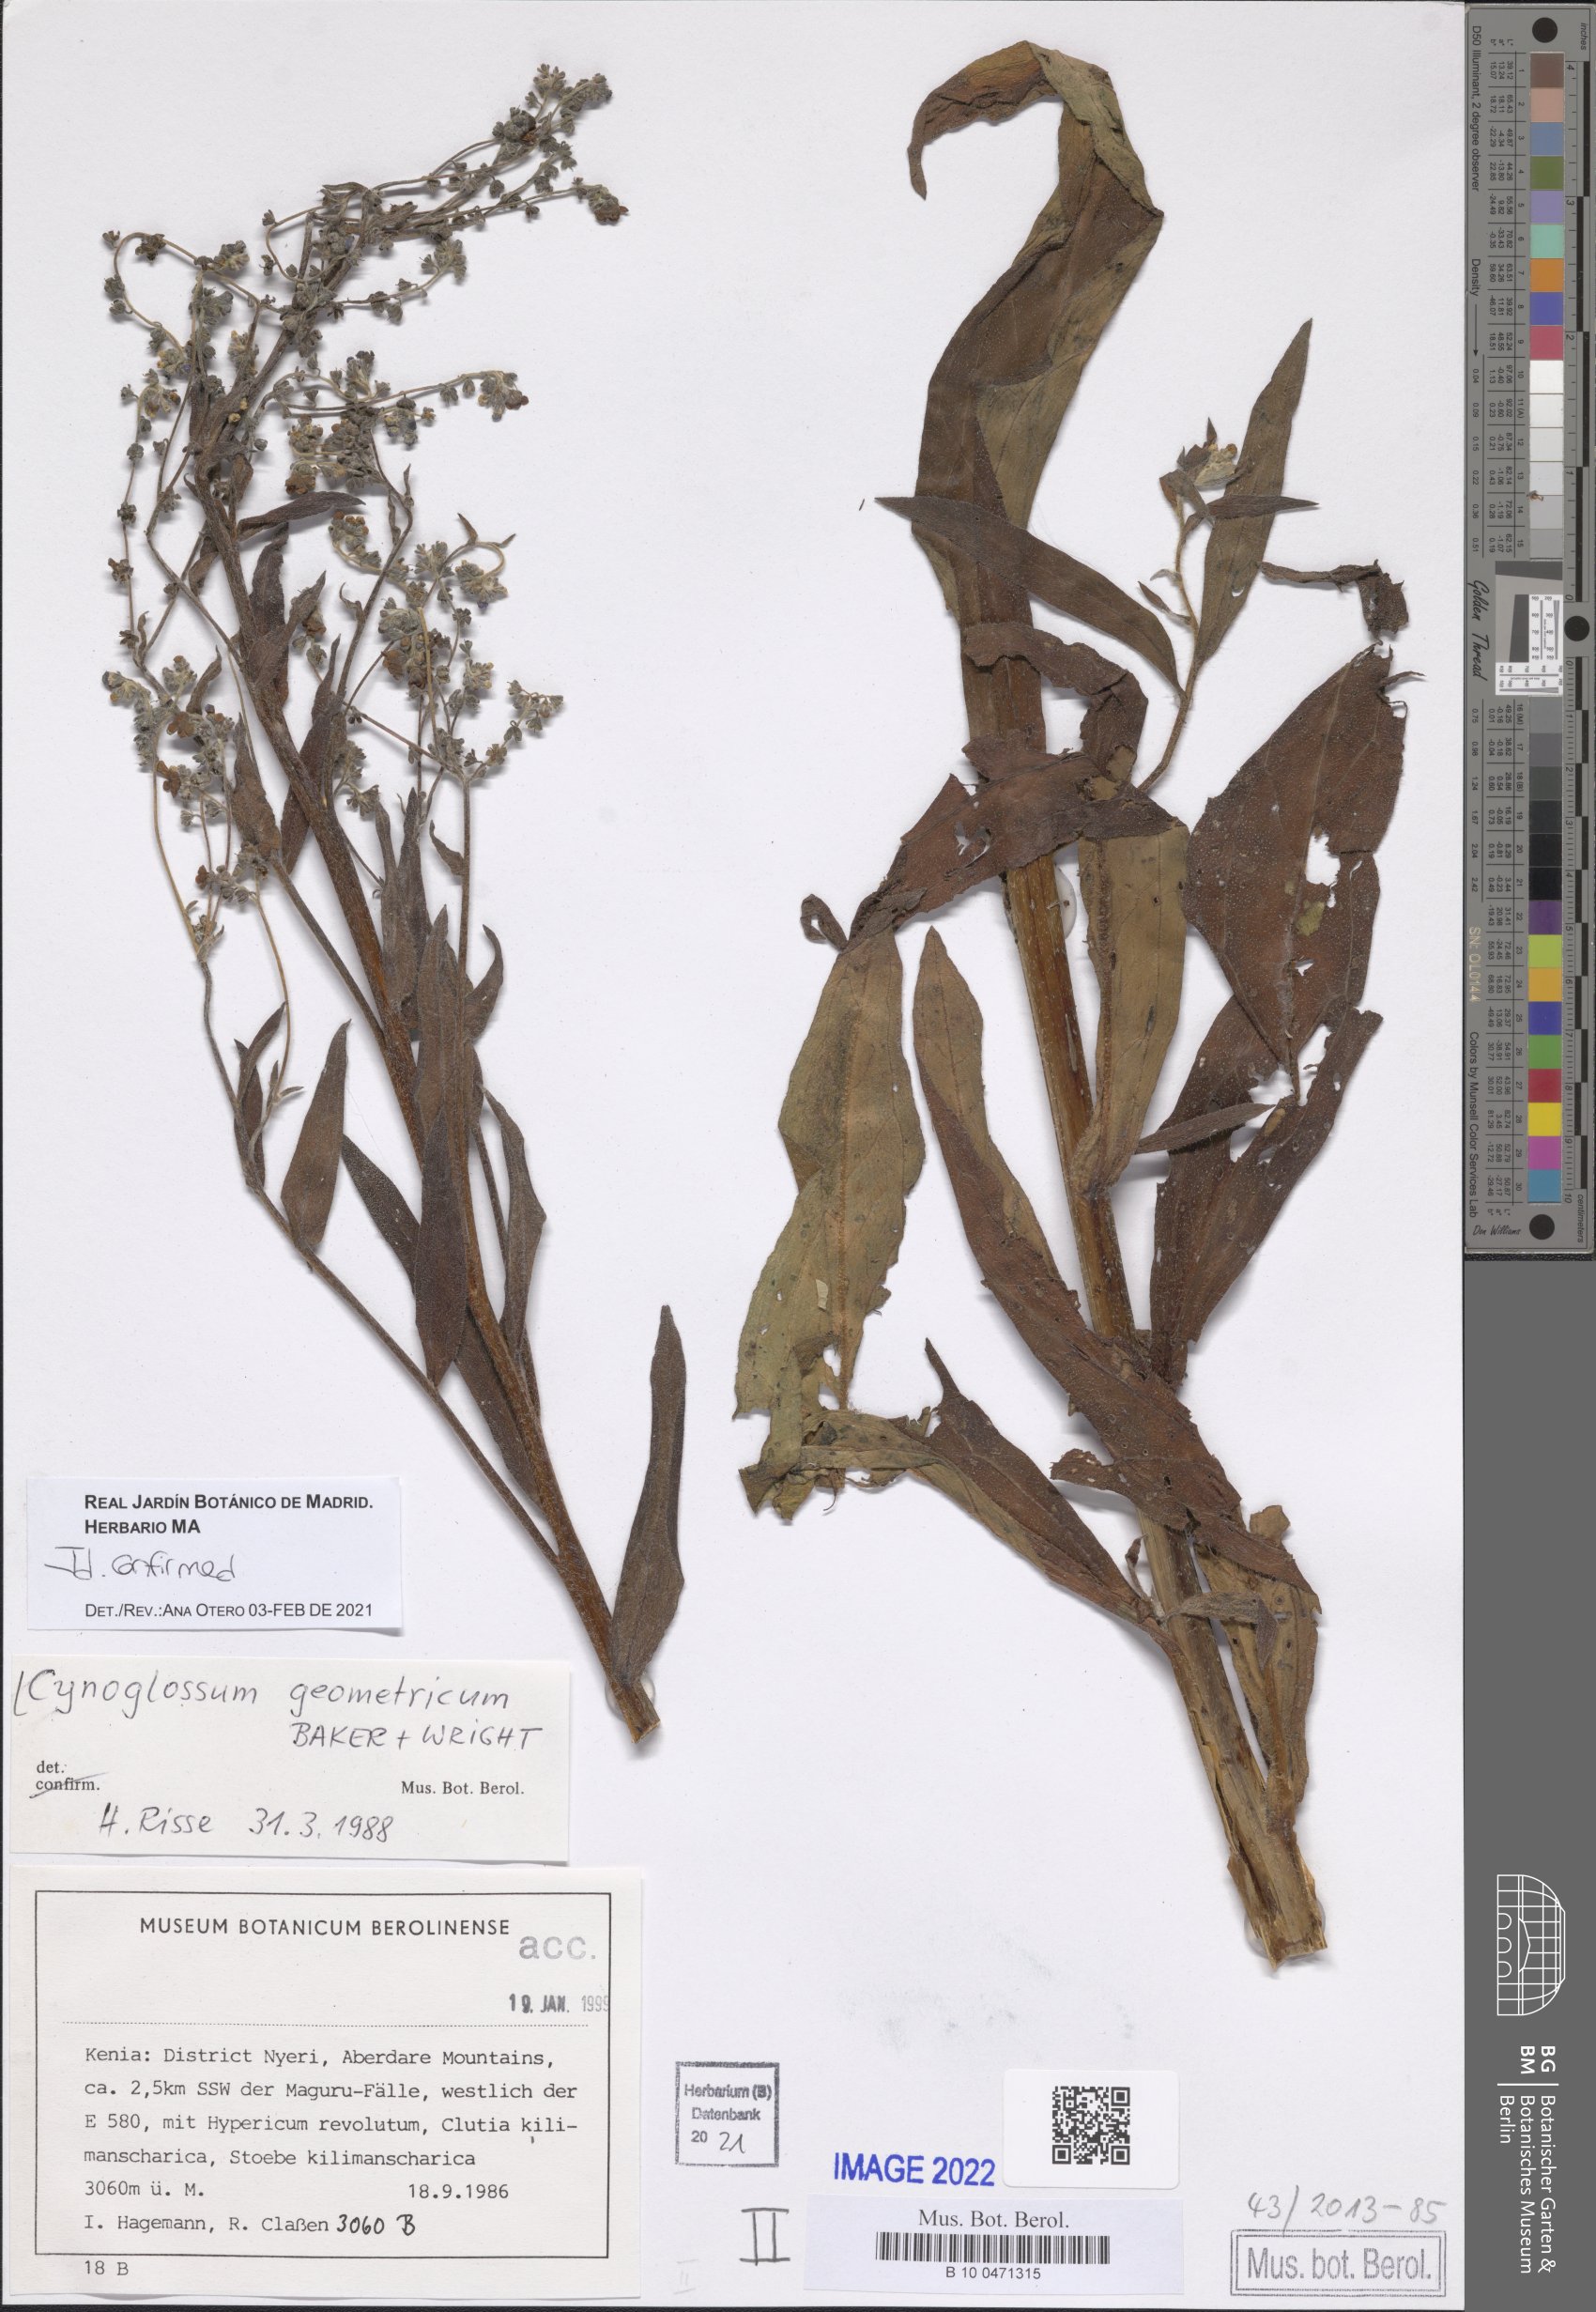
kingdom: Plantae
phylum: Tracheophyta
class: Magnoliopsida
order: Boraginales
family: Boraginaceae
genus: Paracynoglossum
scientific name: Paracynoglossum geometricum
